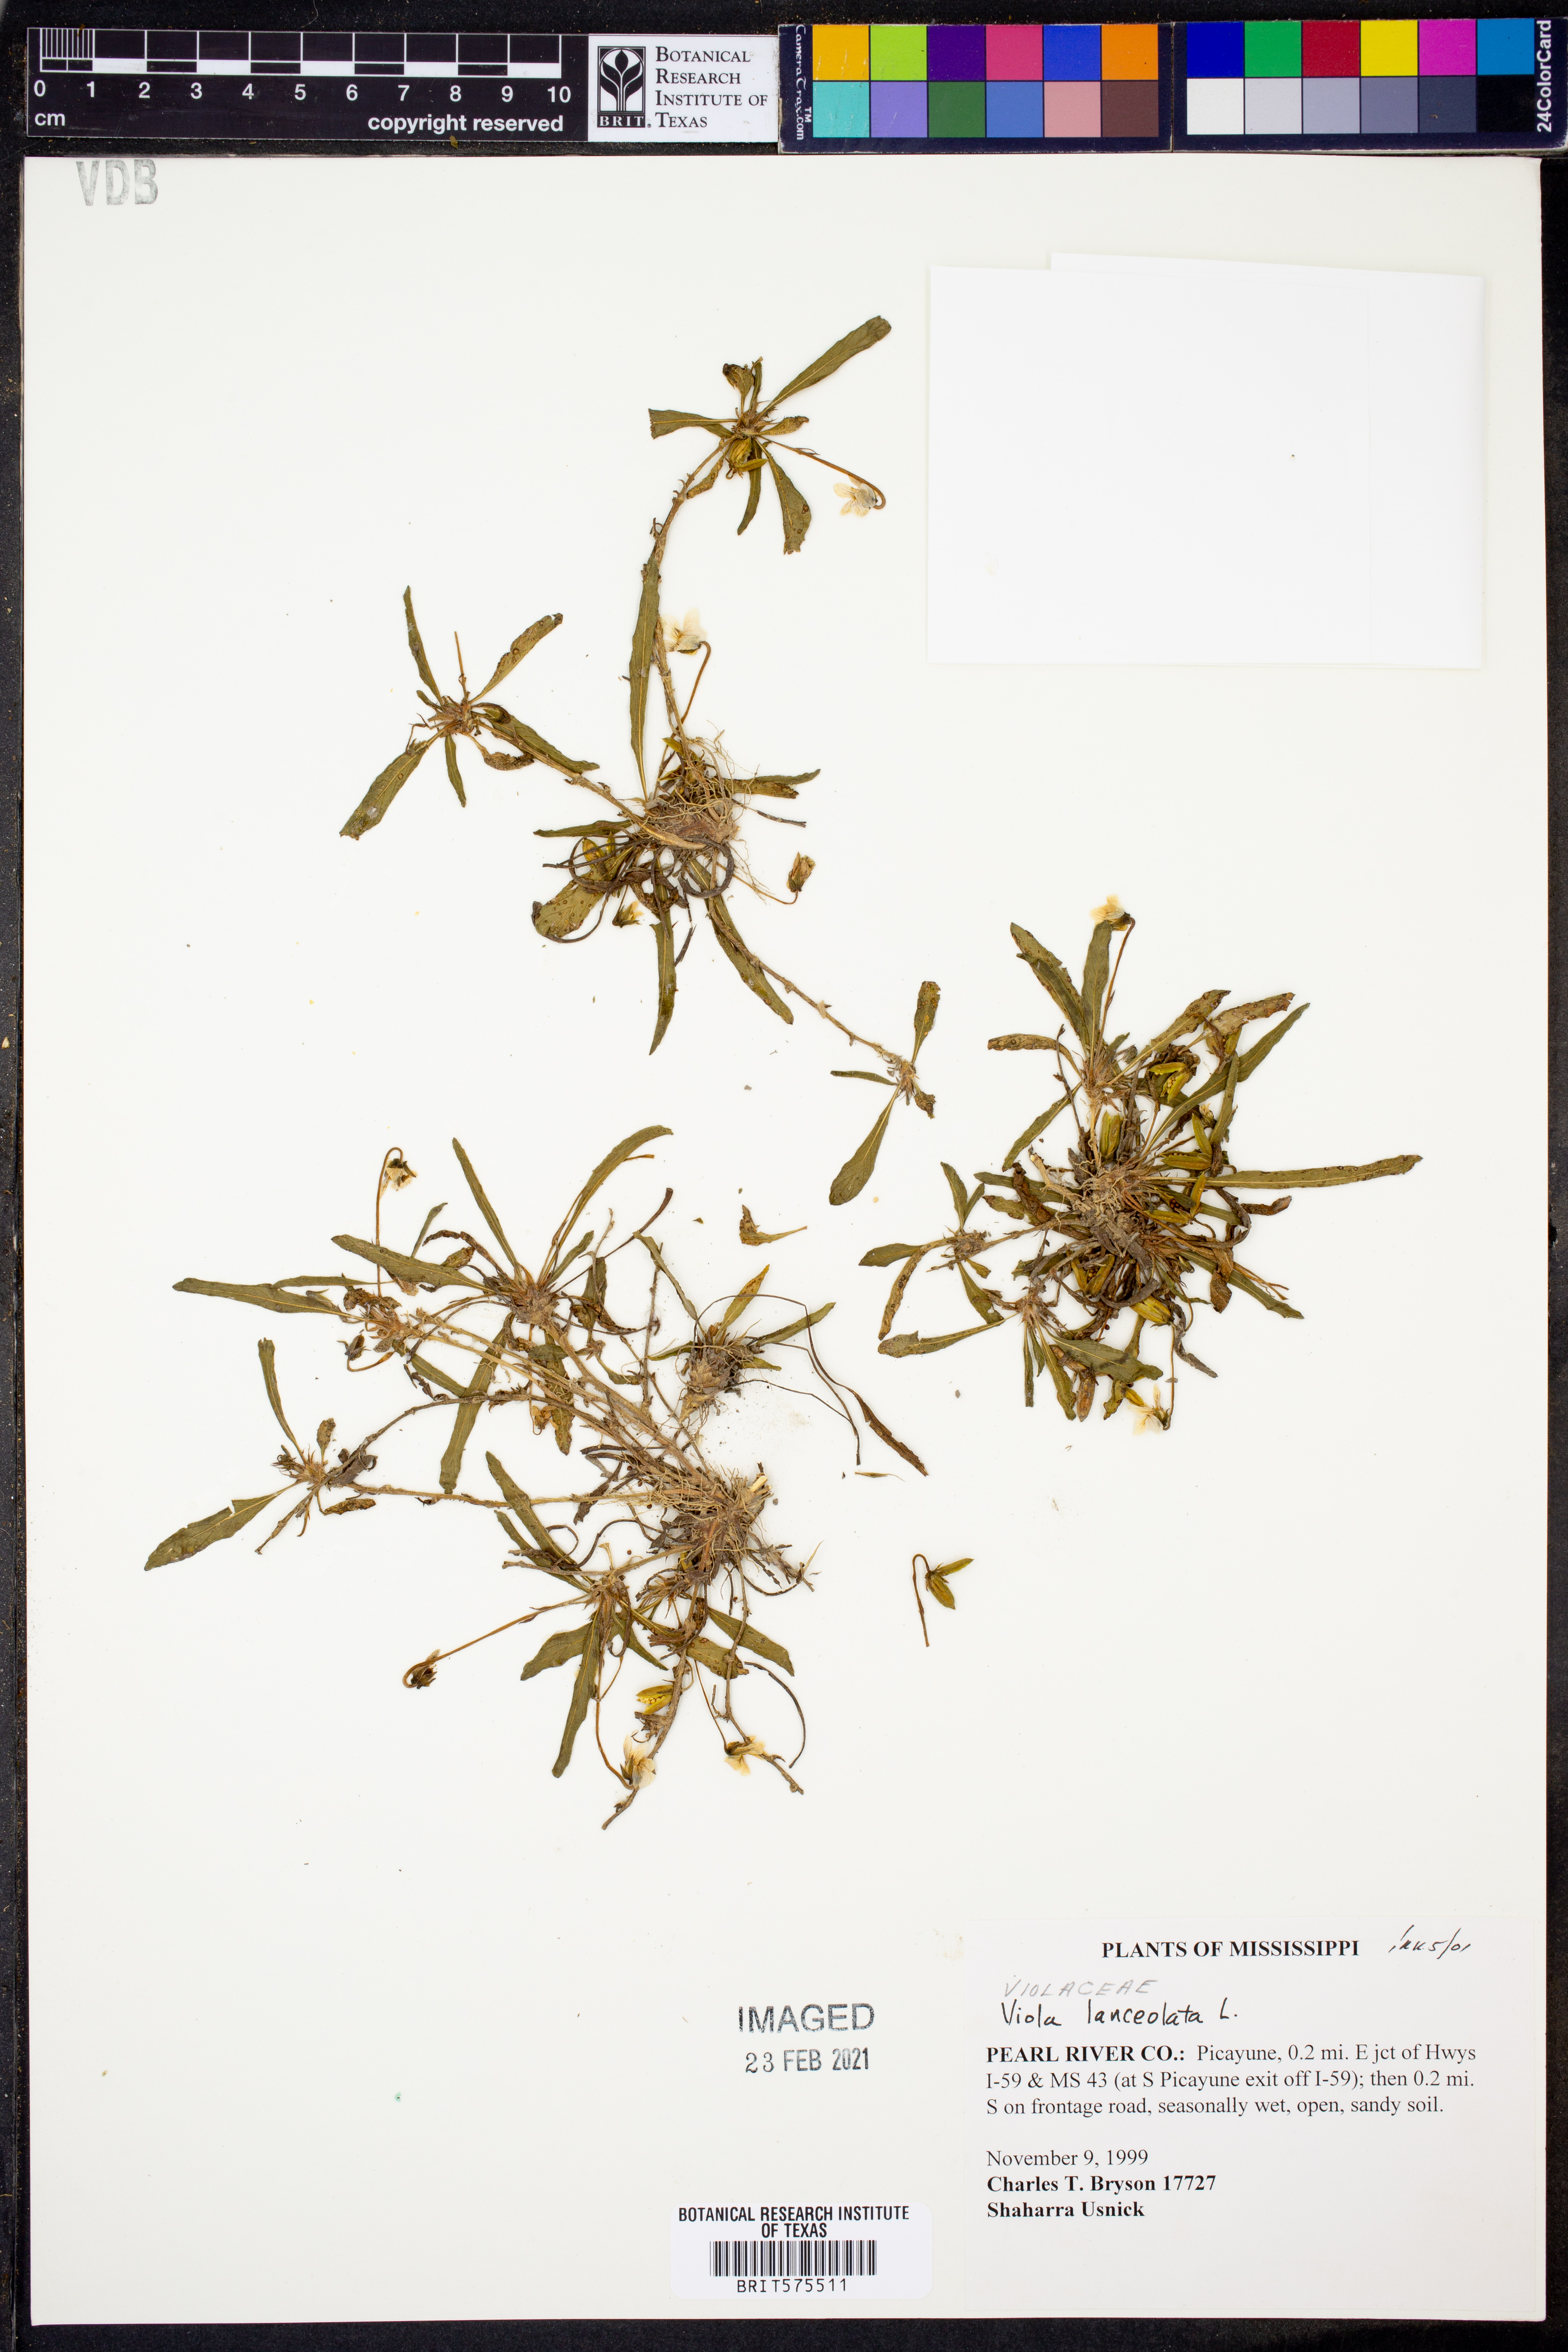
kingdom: Plantae
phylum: Tracheophyta
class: Magnoliopsida
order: Malpighiales
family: Violaceae
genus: Viola
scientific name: Viola lanceolata
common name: Bog white violet
